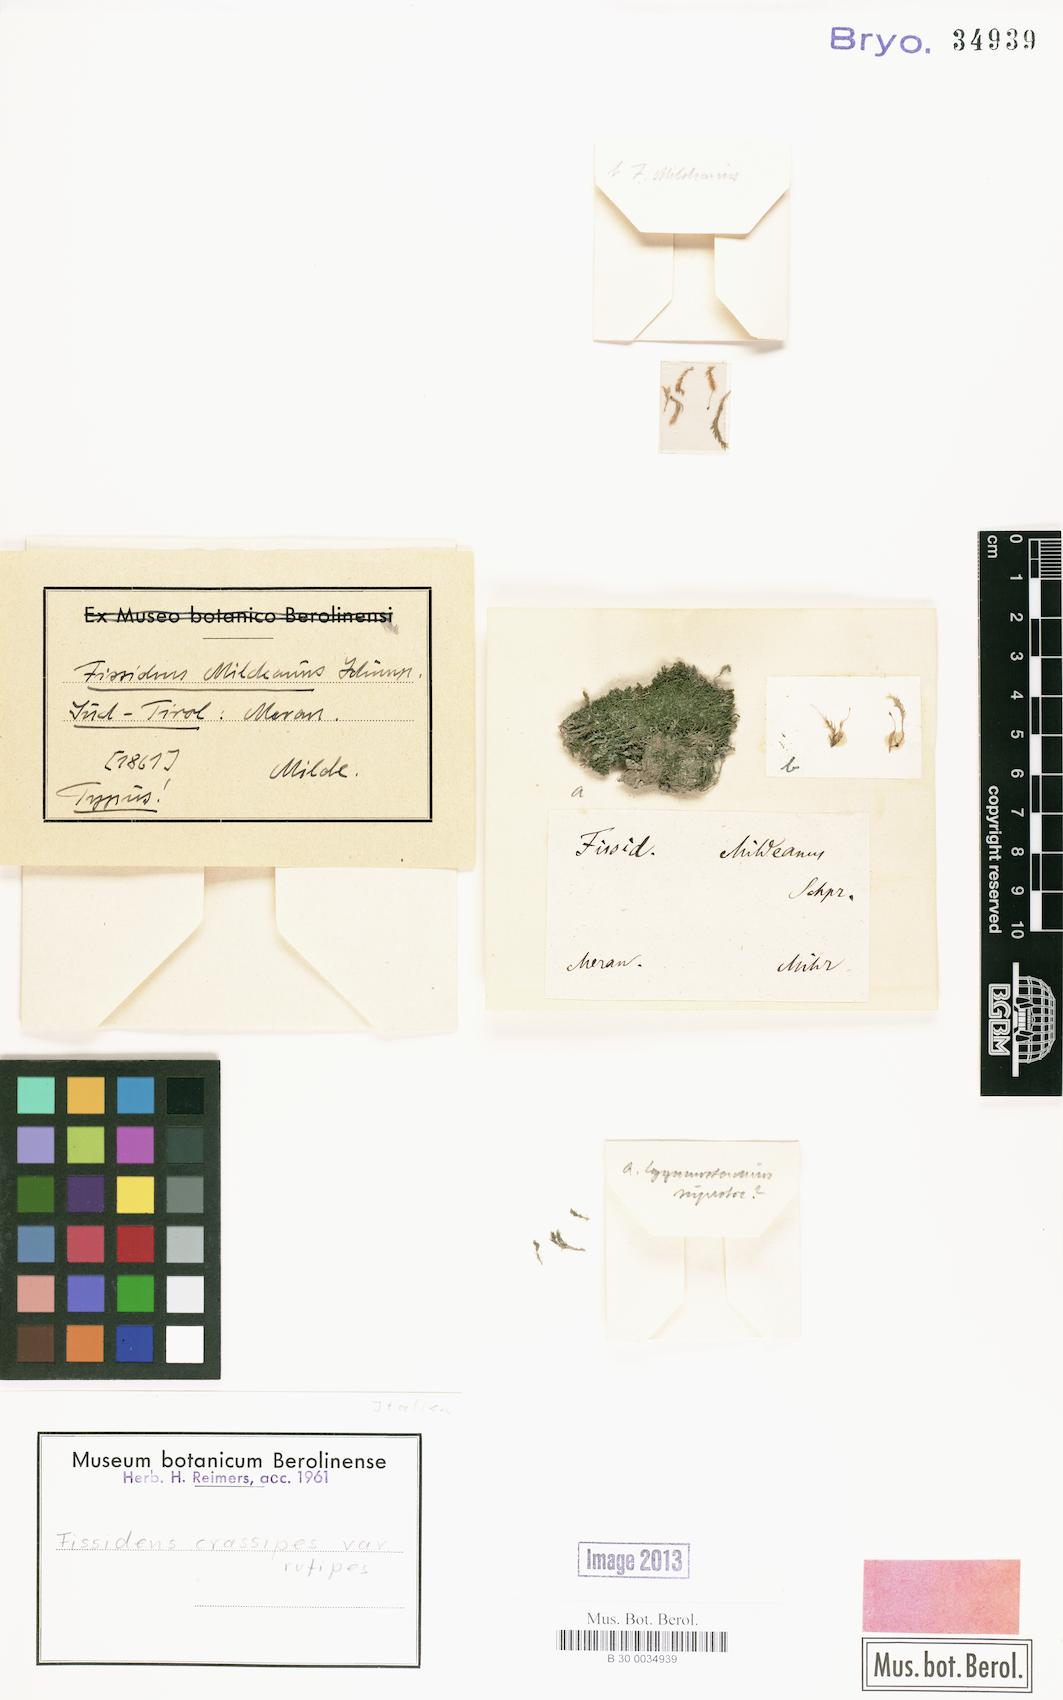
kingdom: Plantae
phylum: Bryophyta
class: Bryopsida
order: Dicranales
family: Fissidentaceae
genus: Fissidens
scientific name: Fissidens crassipes
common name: Fatfoot pocket-moss
